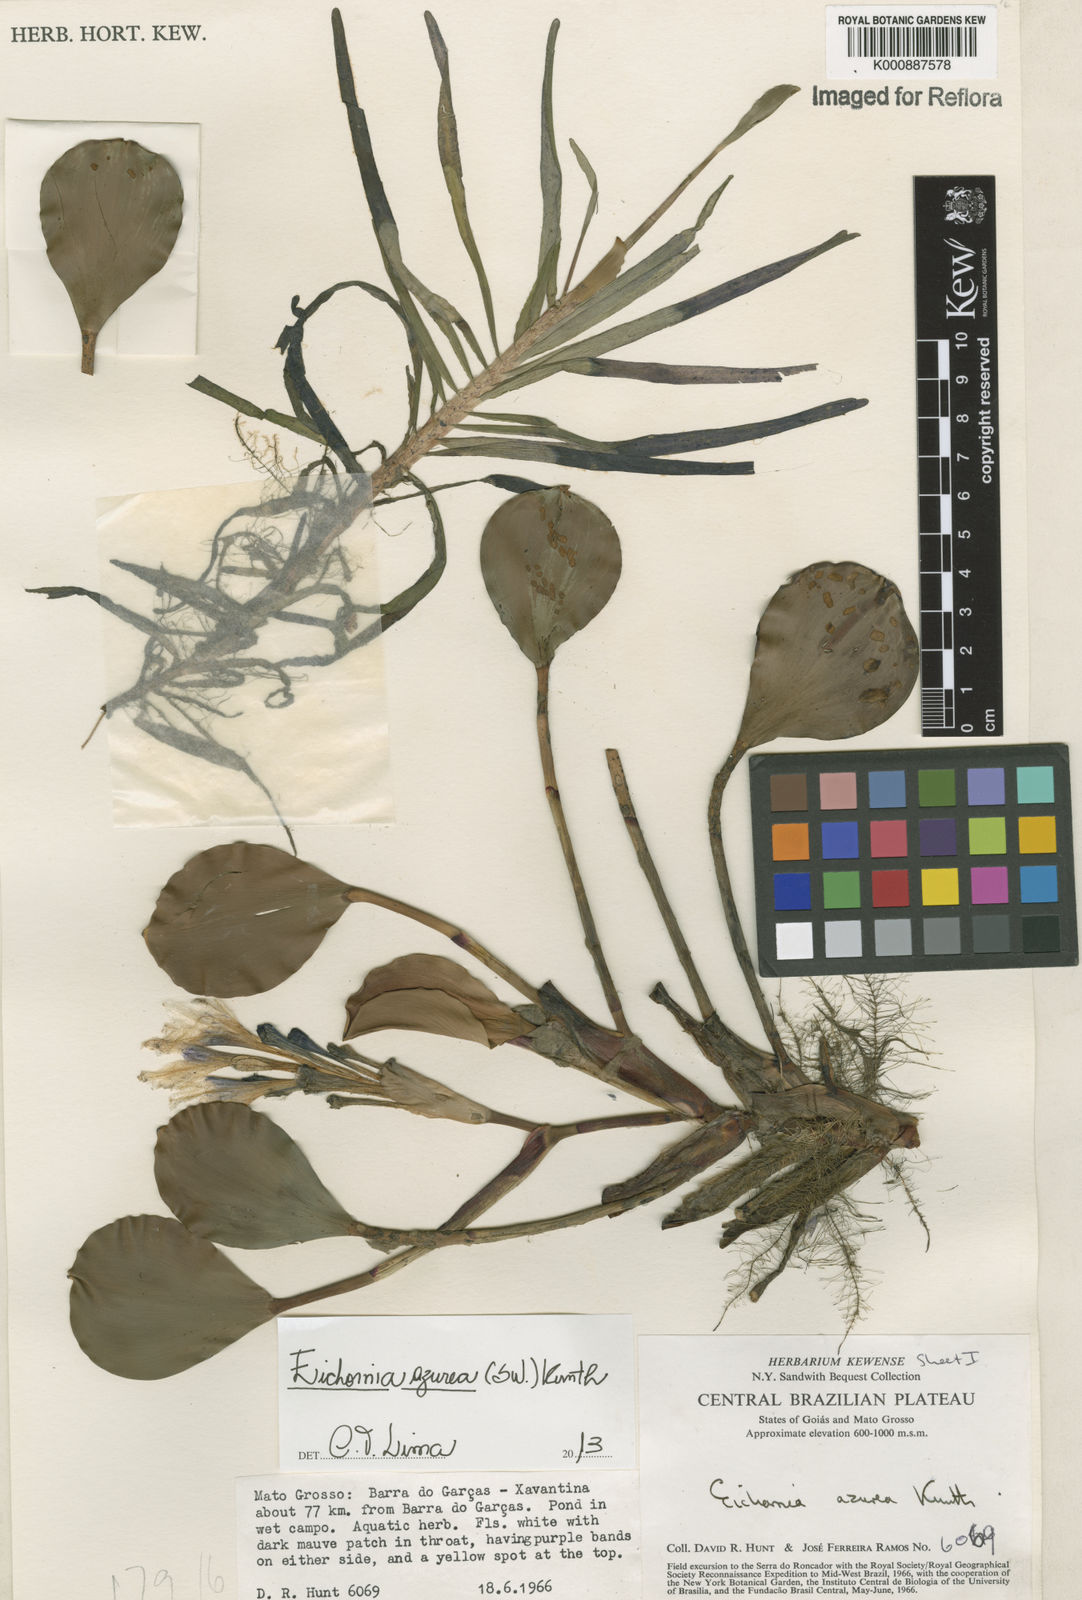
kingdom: Plantae
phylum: Tracheophyta
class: Liliopsida
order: Commelinales
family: Pontederiaceae
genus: Pontederia
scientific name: Pontederia azurea
